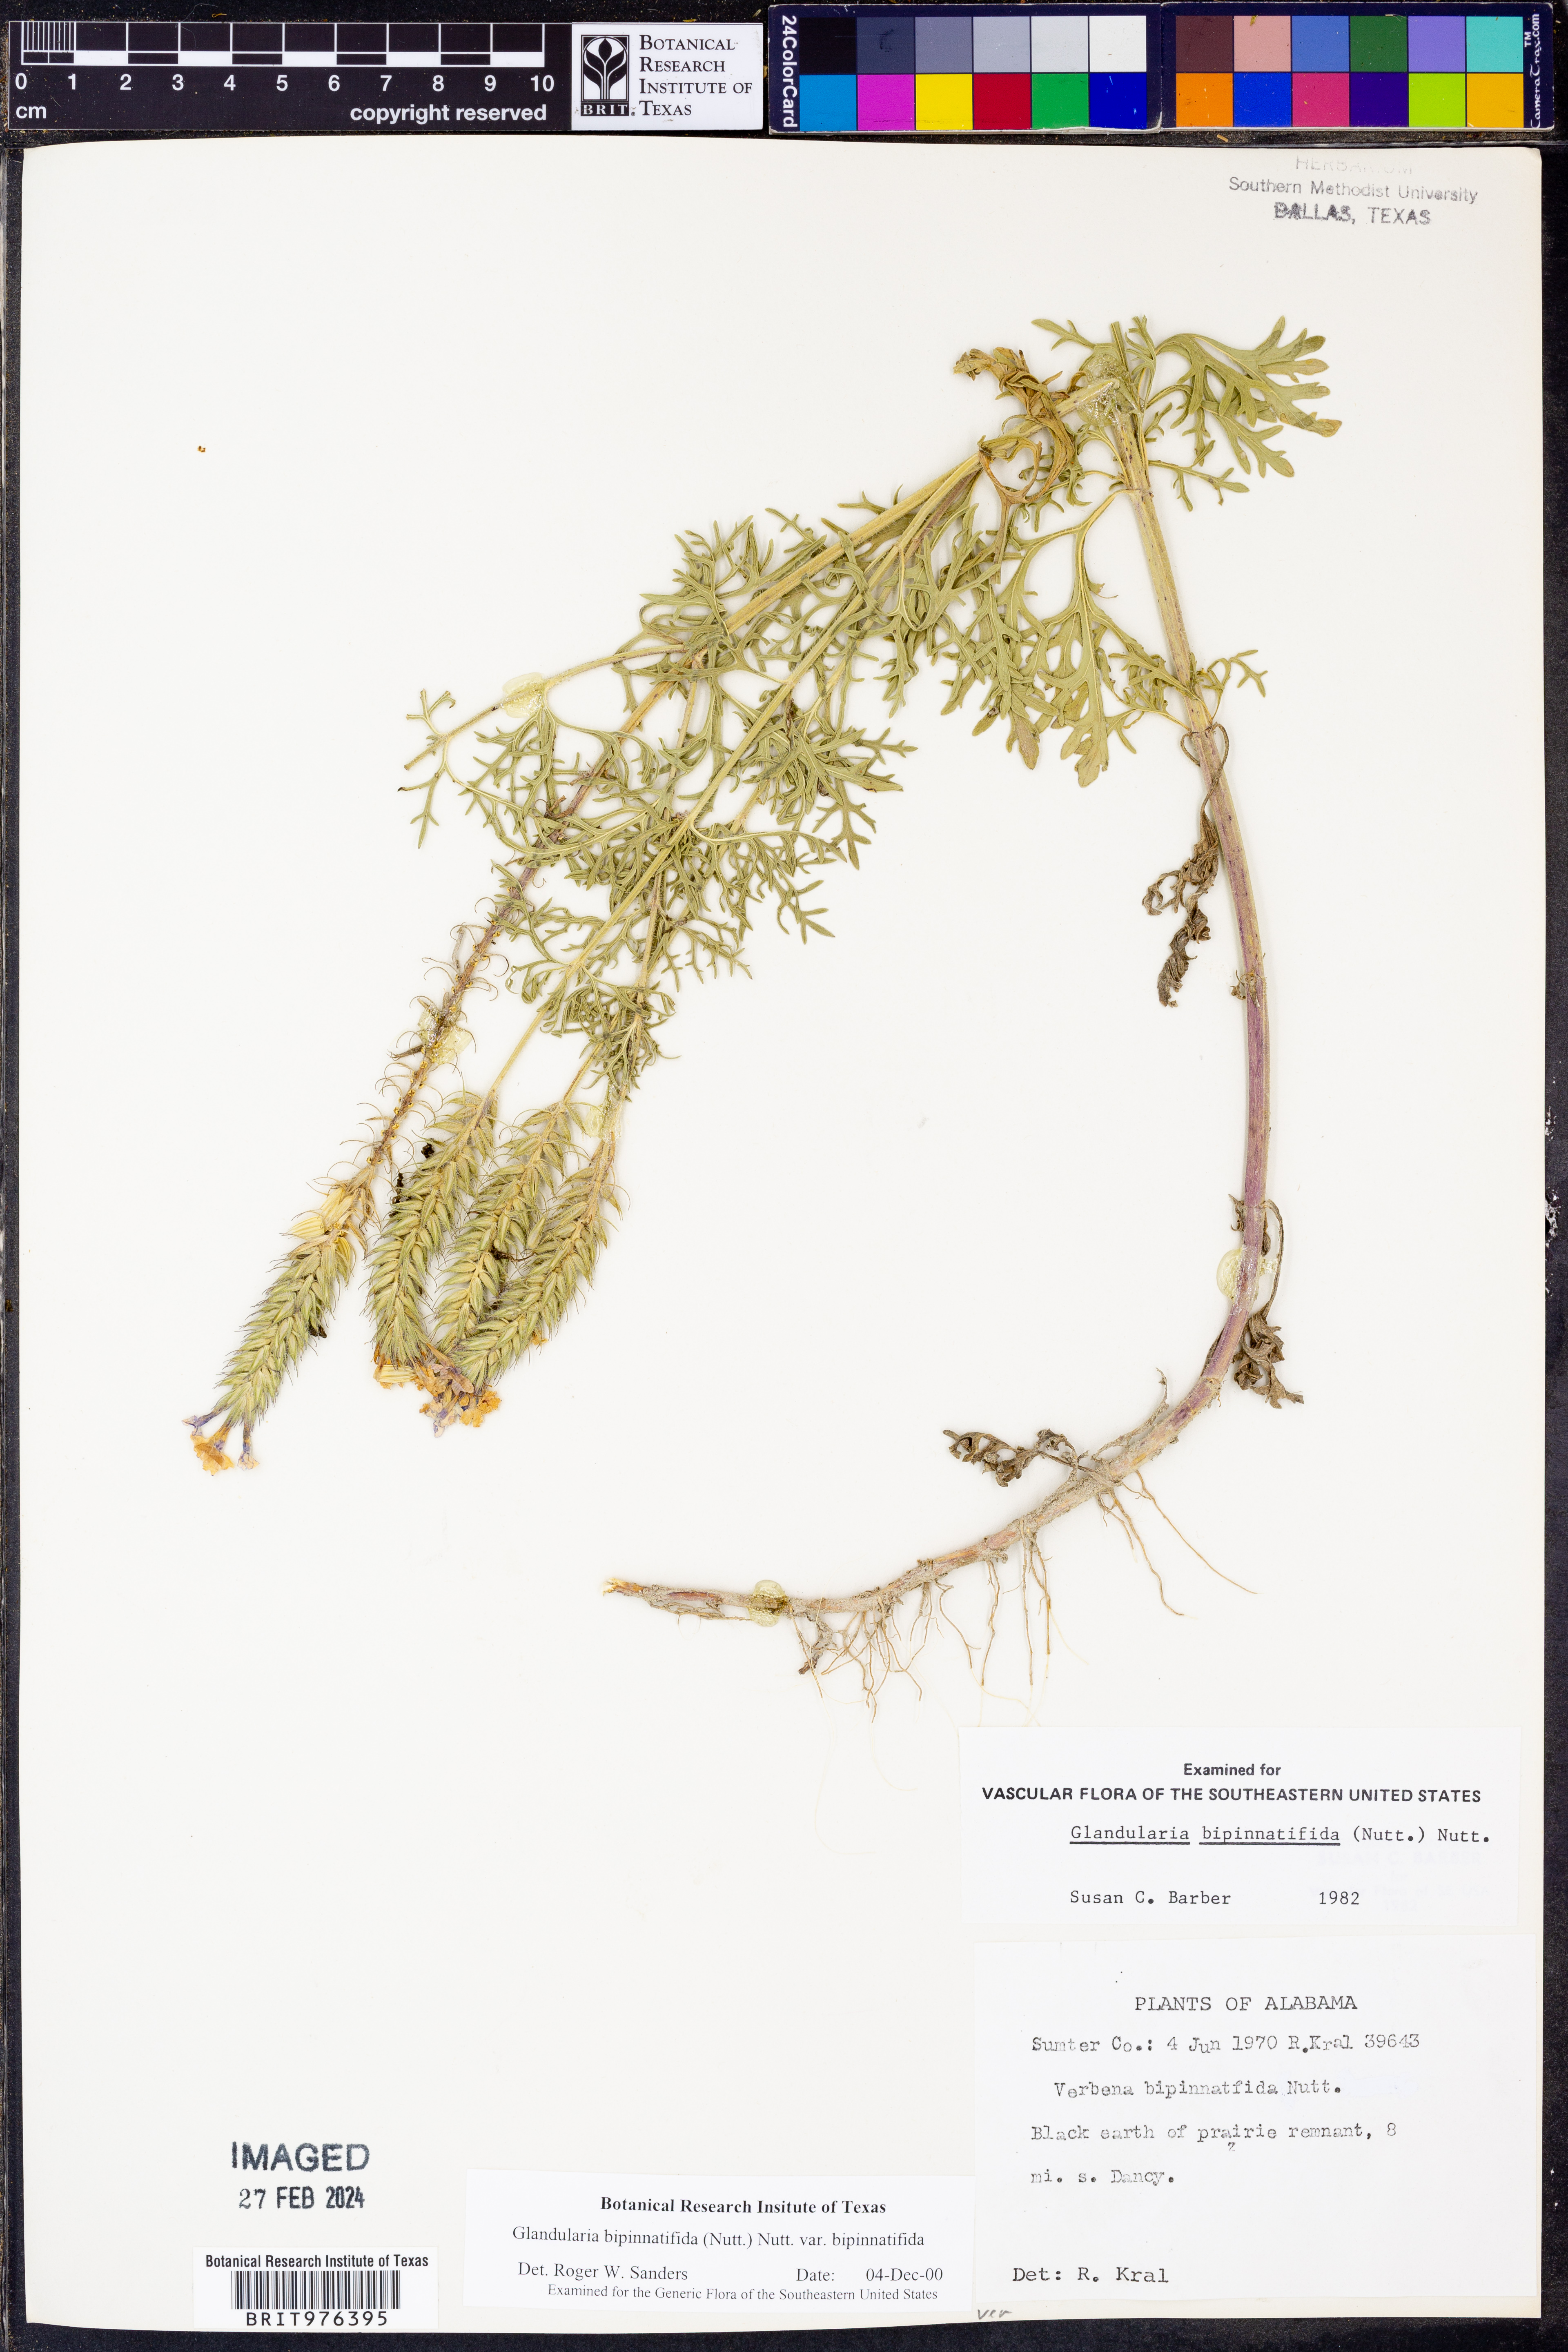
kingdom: Plantae
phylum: Tracheophyta
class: Magnoliopsida
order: Lamiales
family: Verbenaceae
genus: Verbena
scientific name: Verbena bipinnatifida
